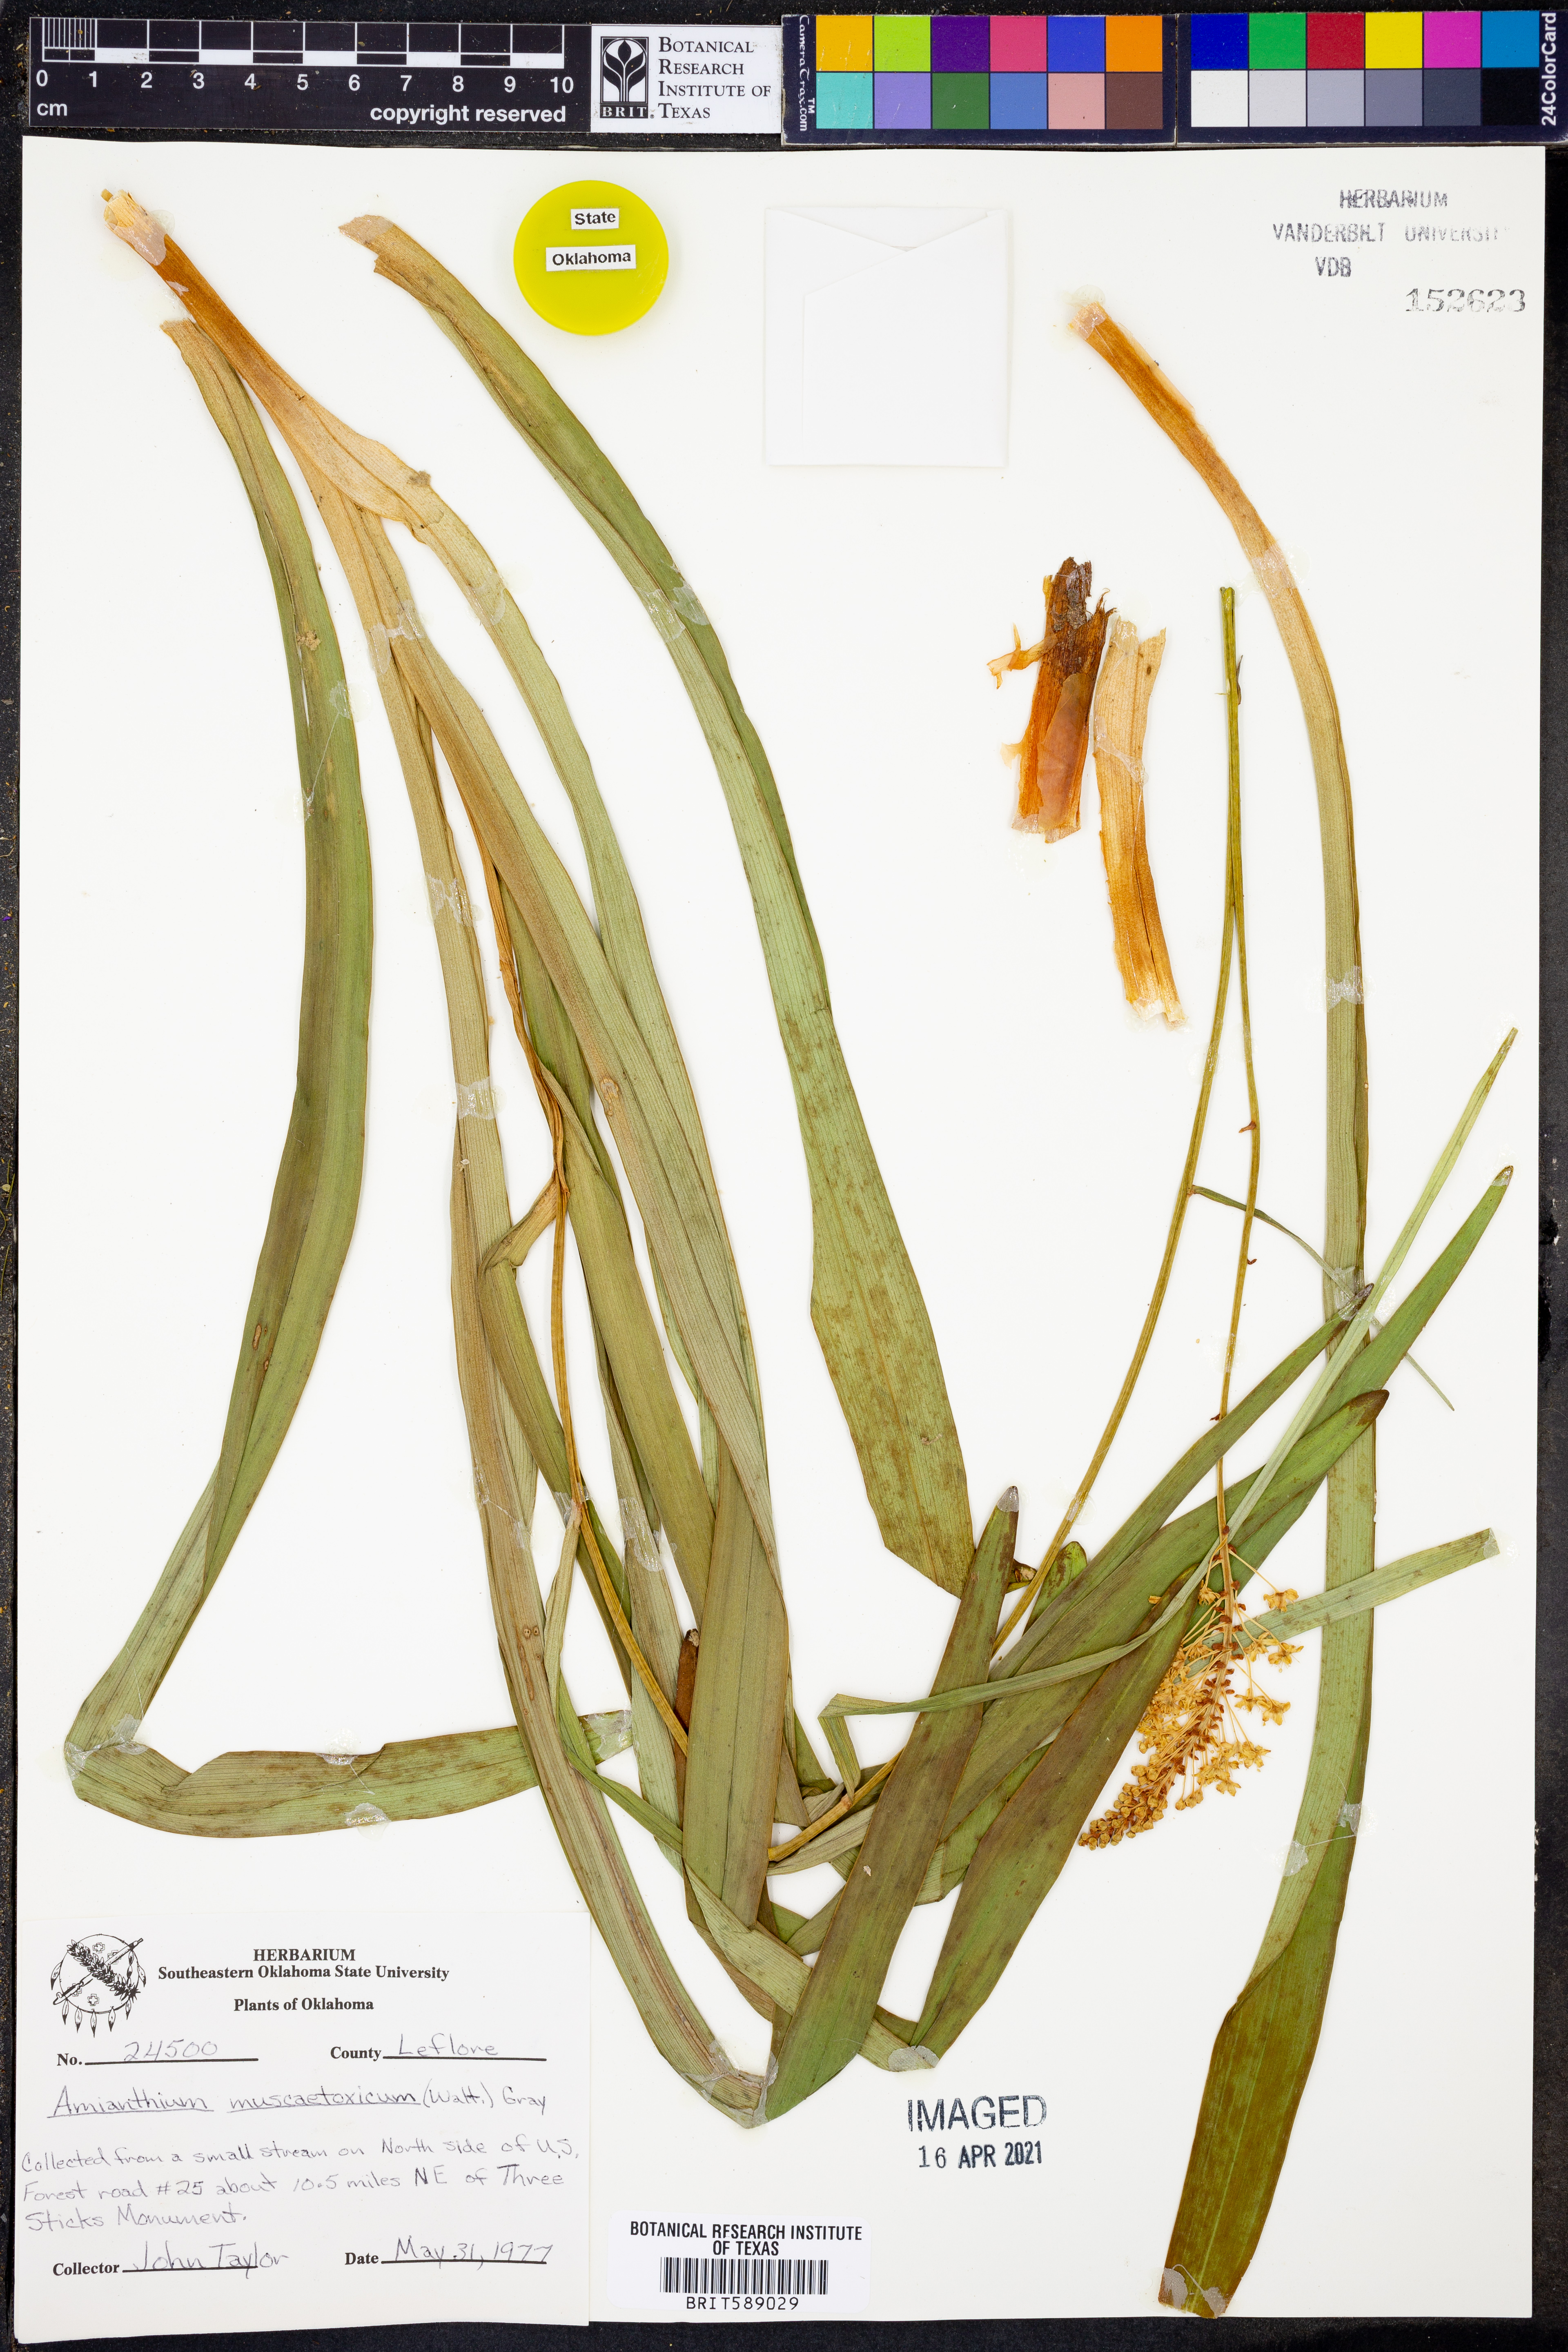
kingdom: Plantae
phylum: Tracheophyta
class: Liliopsida
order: Liliales
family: Melanthiaceae
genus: Amianthium
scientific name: Amianthium muscitoxicum
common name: Fly-poison
